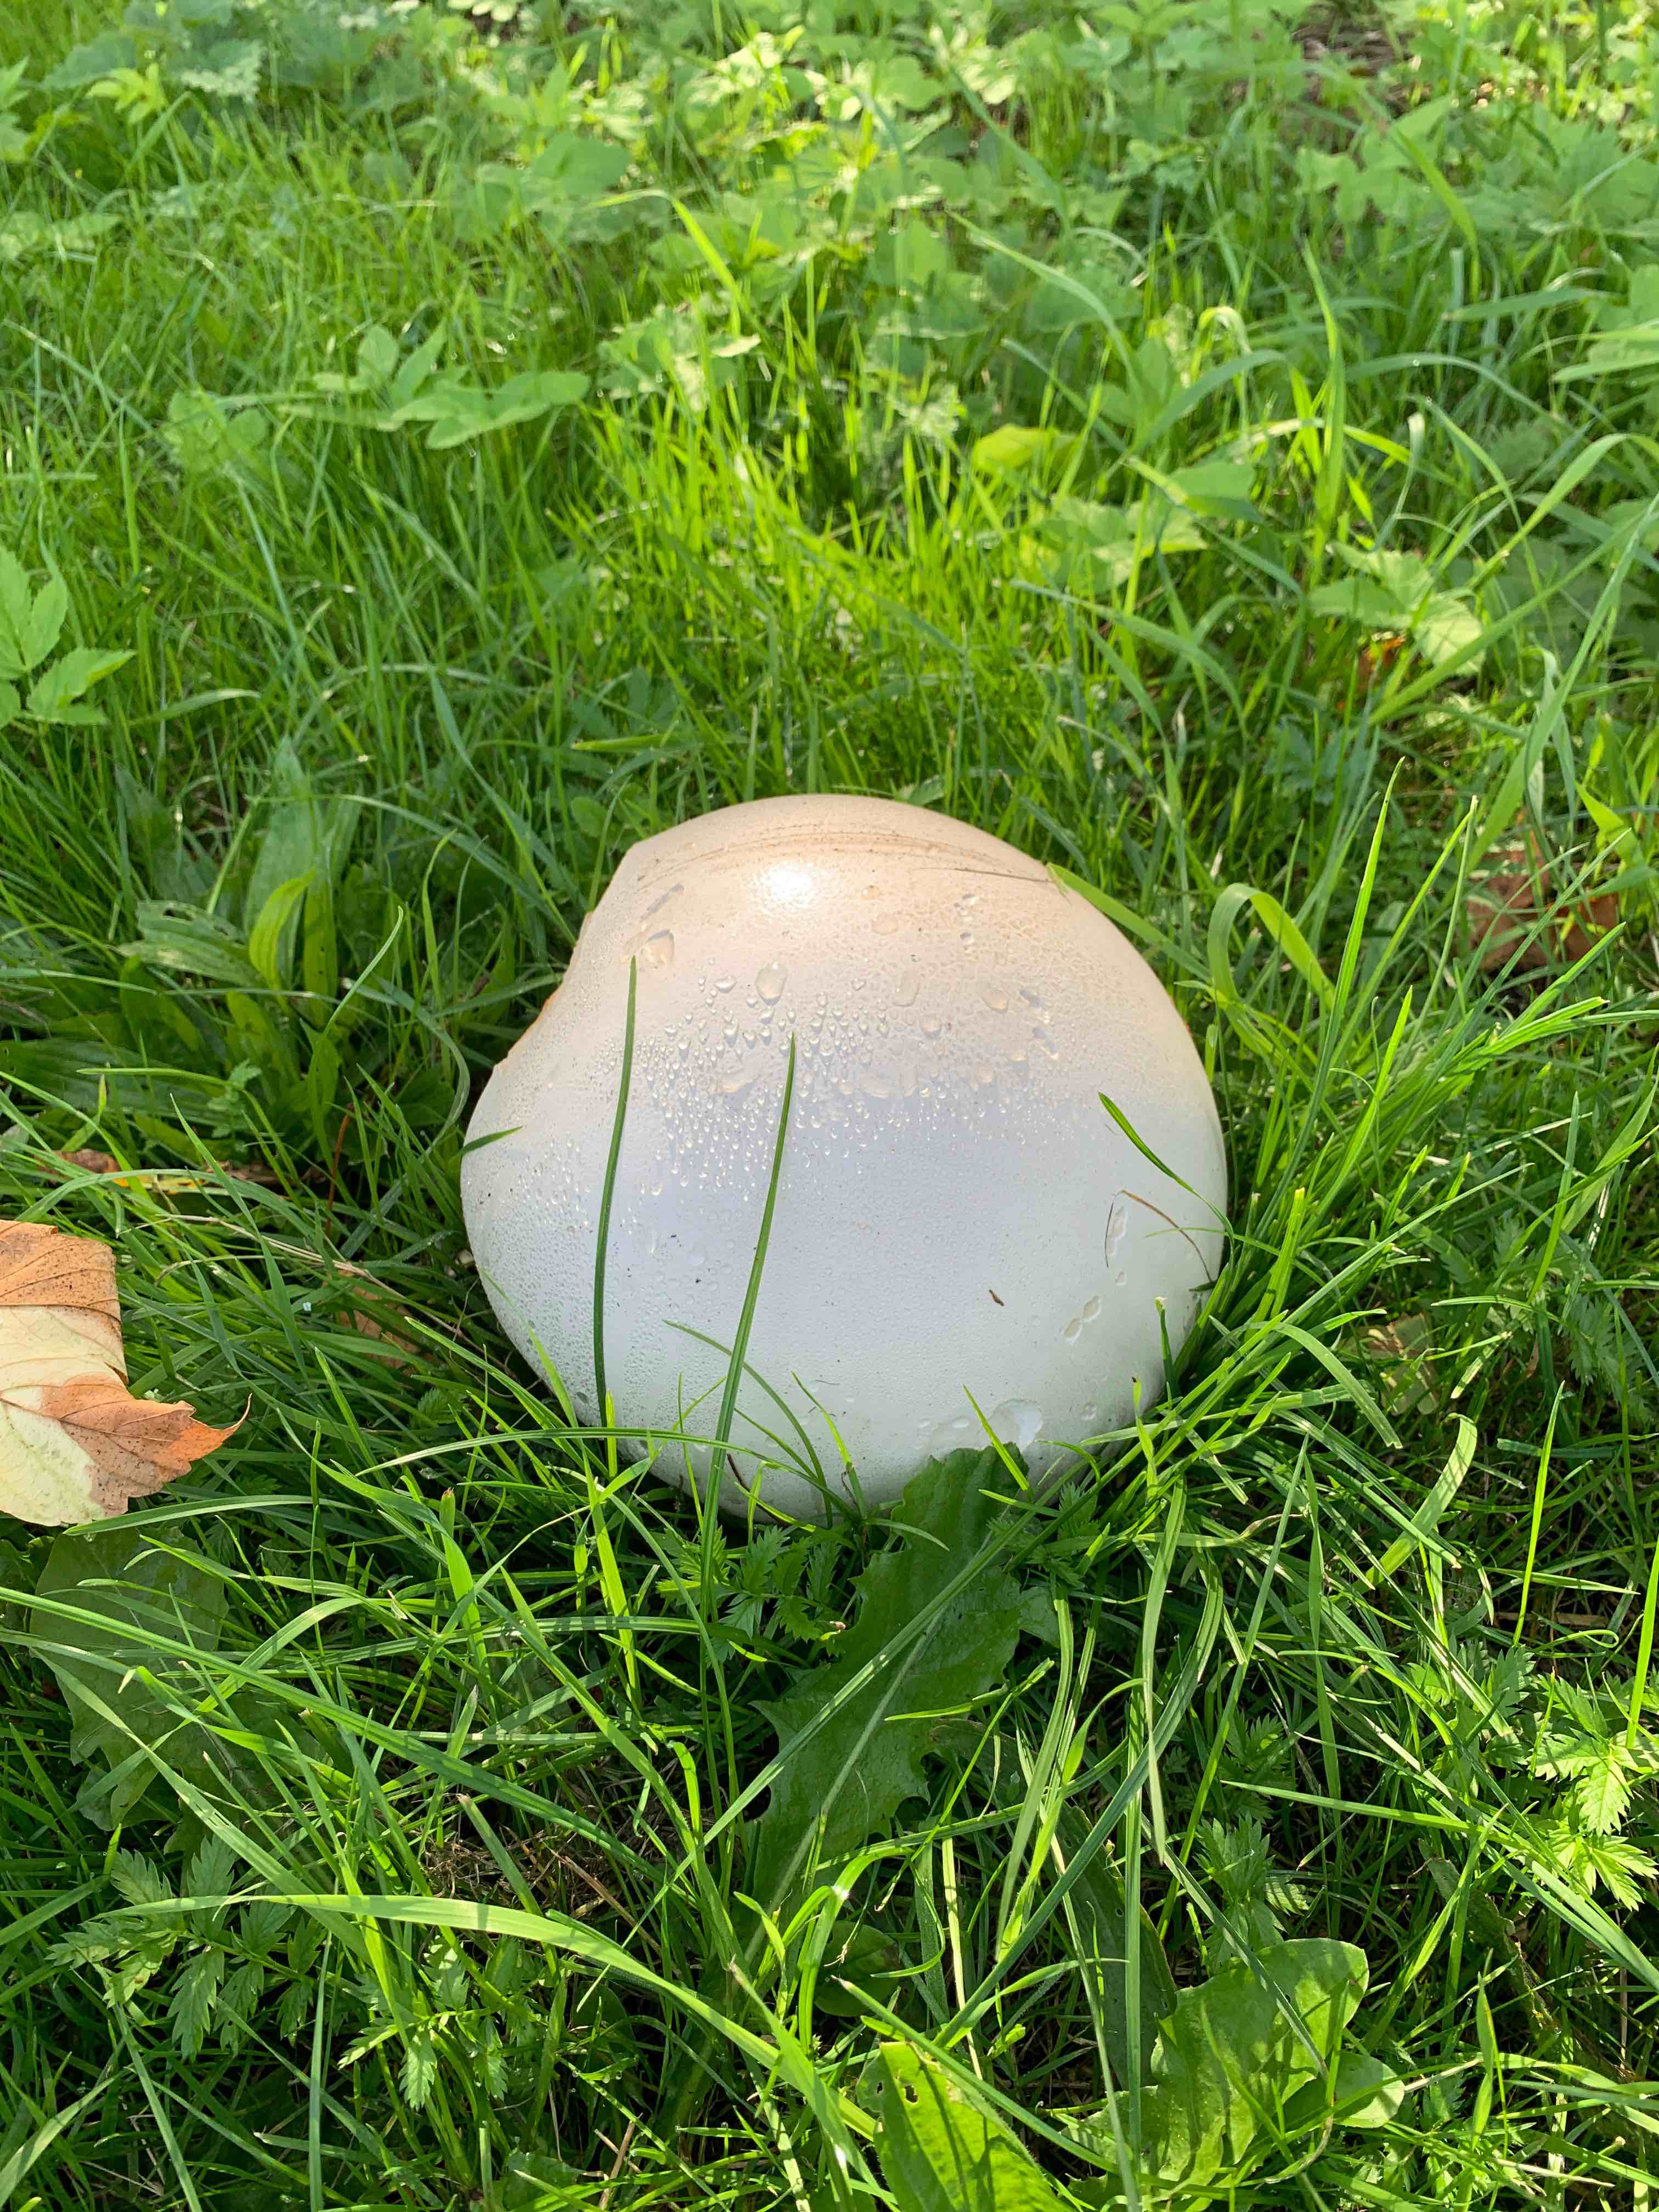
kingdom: Fungi
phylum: Basidiomycota
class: Agaricomycetes
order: Agaricales
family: Lycoperdaceae
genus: Calvatia
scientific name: Calvatia gigantea
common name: kæmpestøvbold
